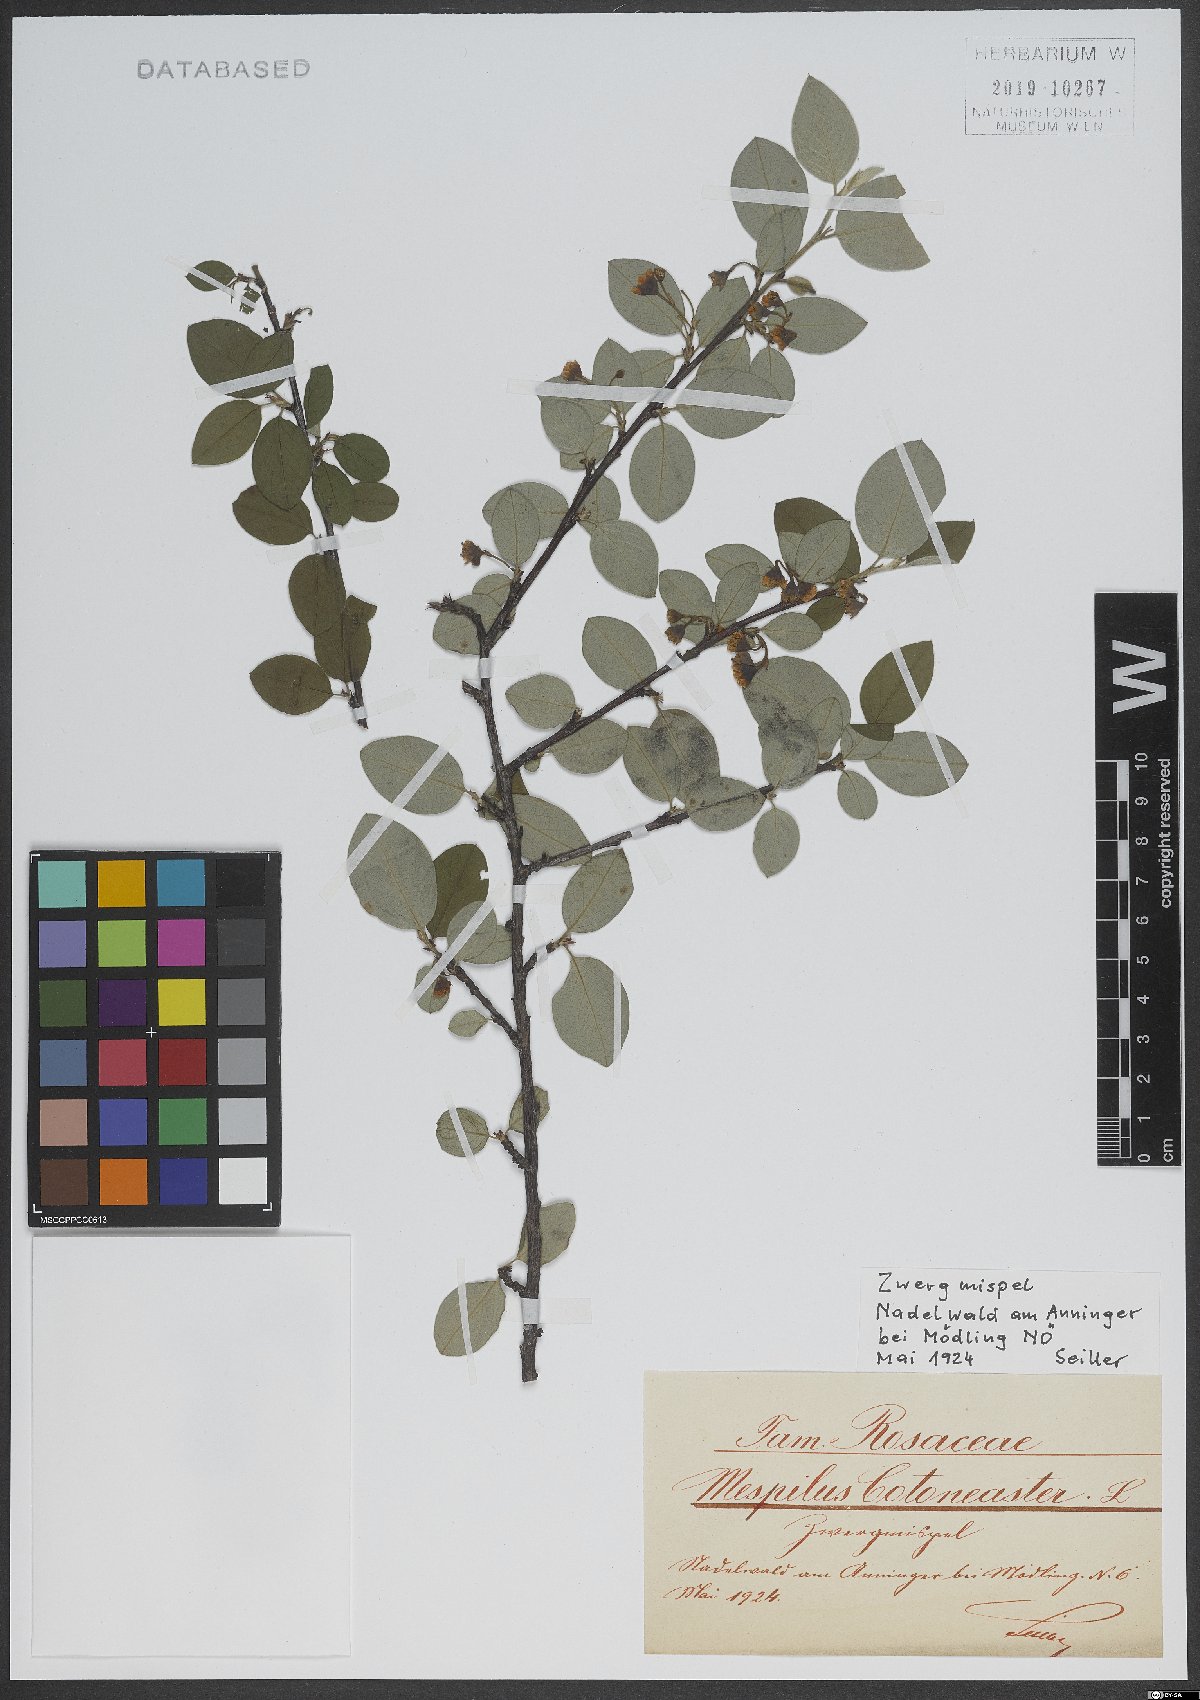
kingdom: Plantae
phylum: Tracheophyta
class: Magnoliopsida
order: Rosales
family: Rosaceae
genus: Cotoneaster
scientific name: Cotoneaster integerrimus
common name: Wild cotoneaster
